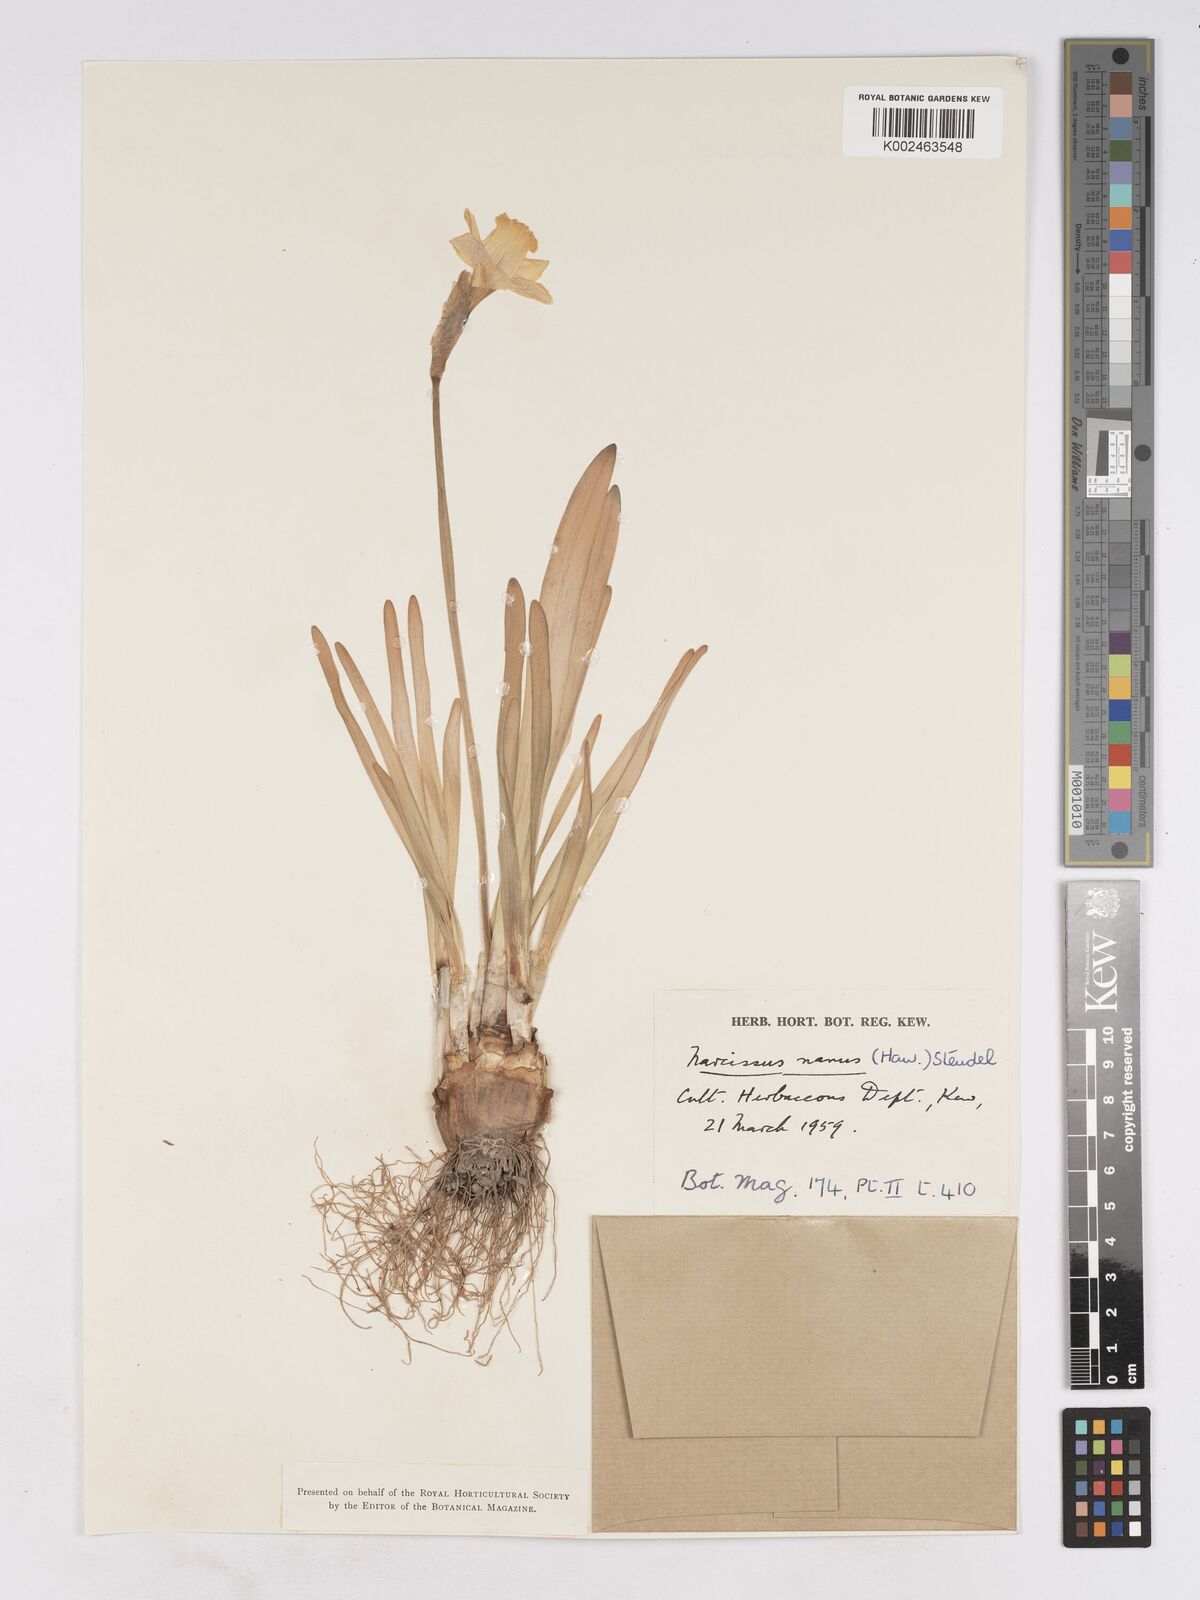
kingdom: Plantae
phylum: Tracheophyta
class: Liliopsida
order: Asparagales
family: Amaryllidaceae
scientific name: Amaryllidaceae
